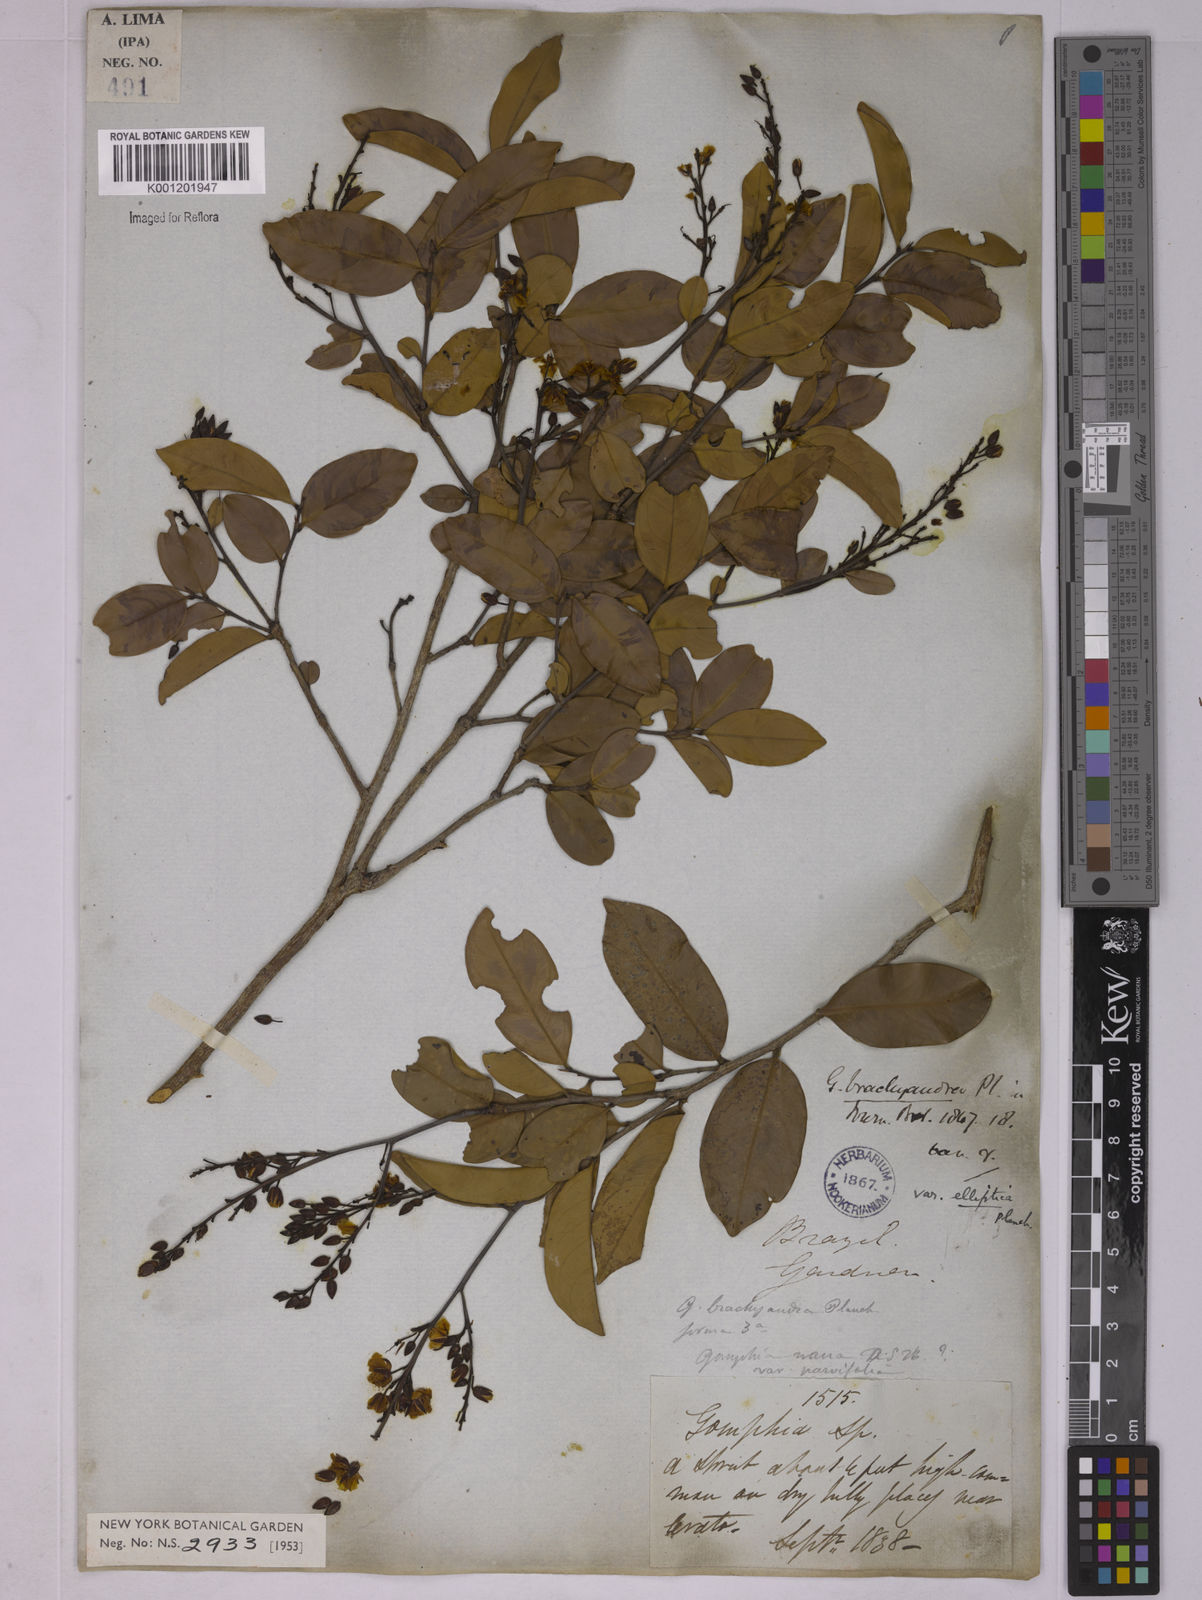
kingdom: Plantae
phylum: Tracheophyta
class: Magnoliopsida
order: Malpighiales
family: Ochnaceae
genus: Ouratea
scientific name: Ouratea parvifolia
